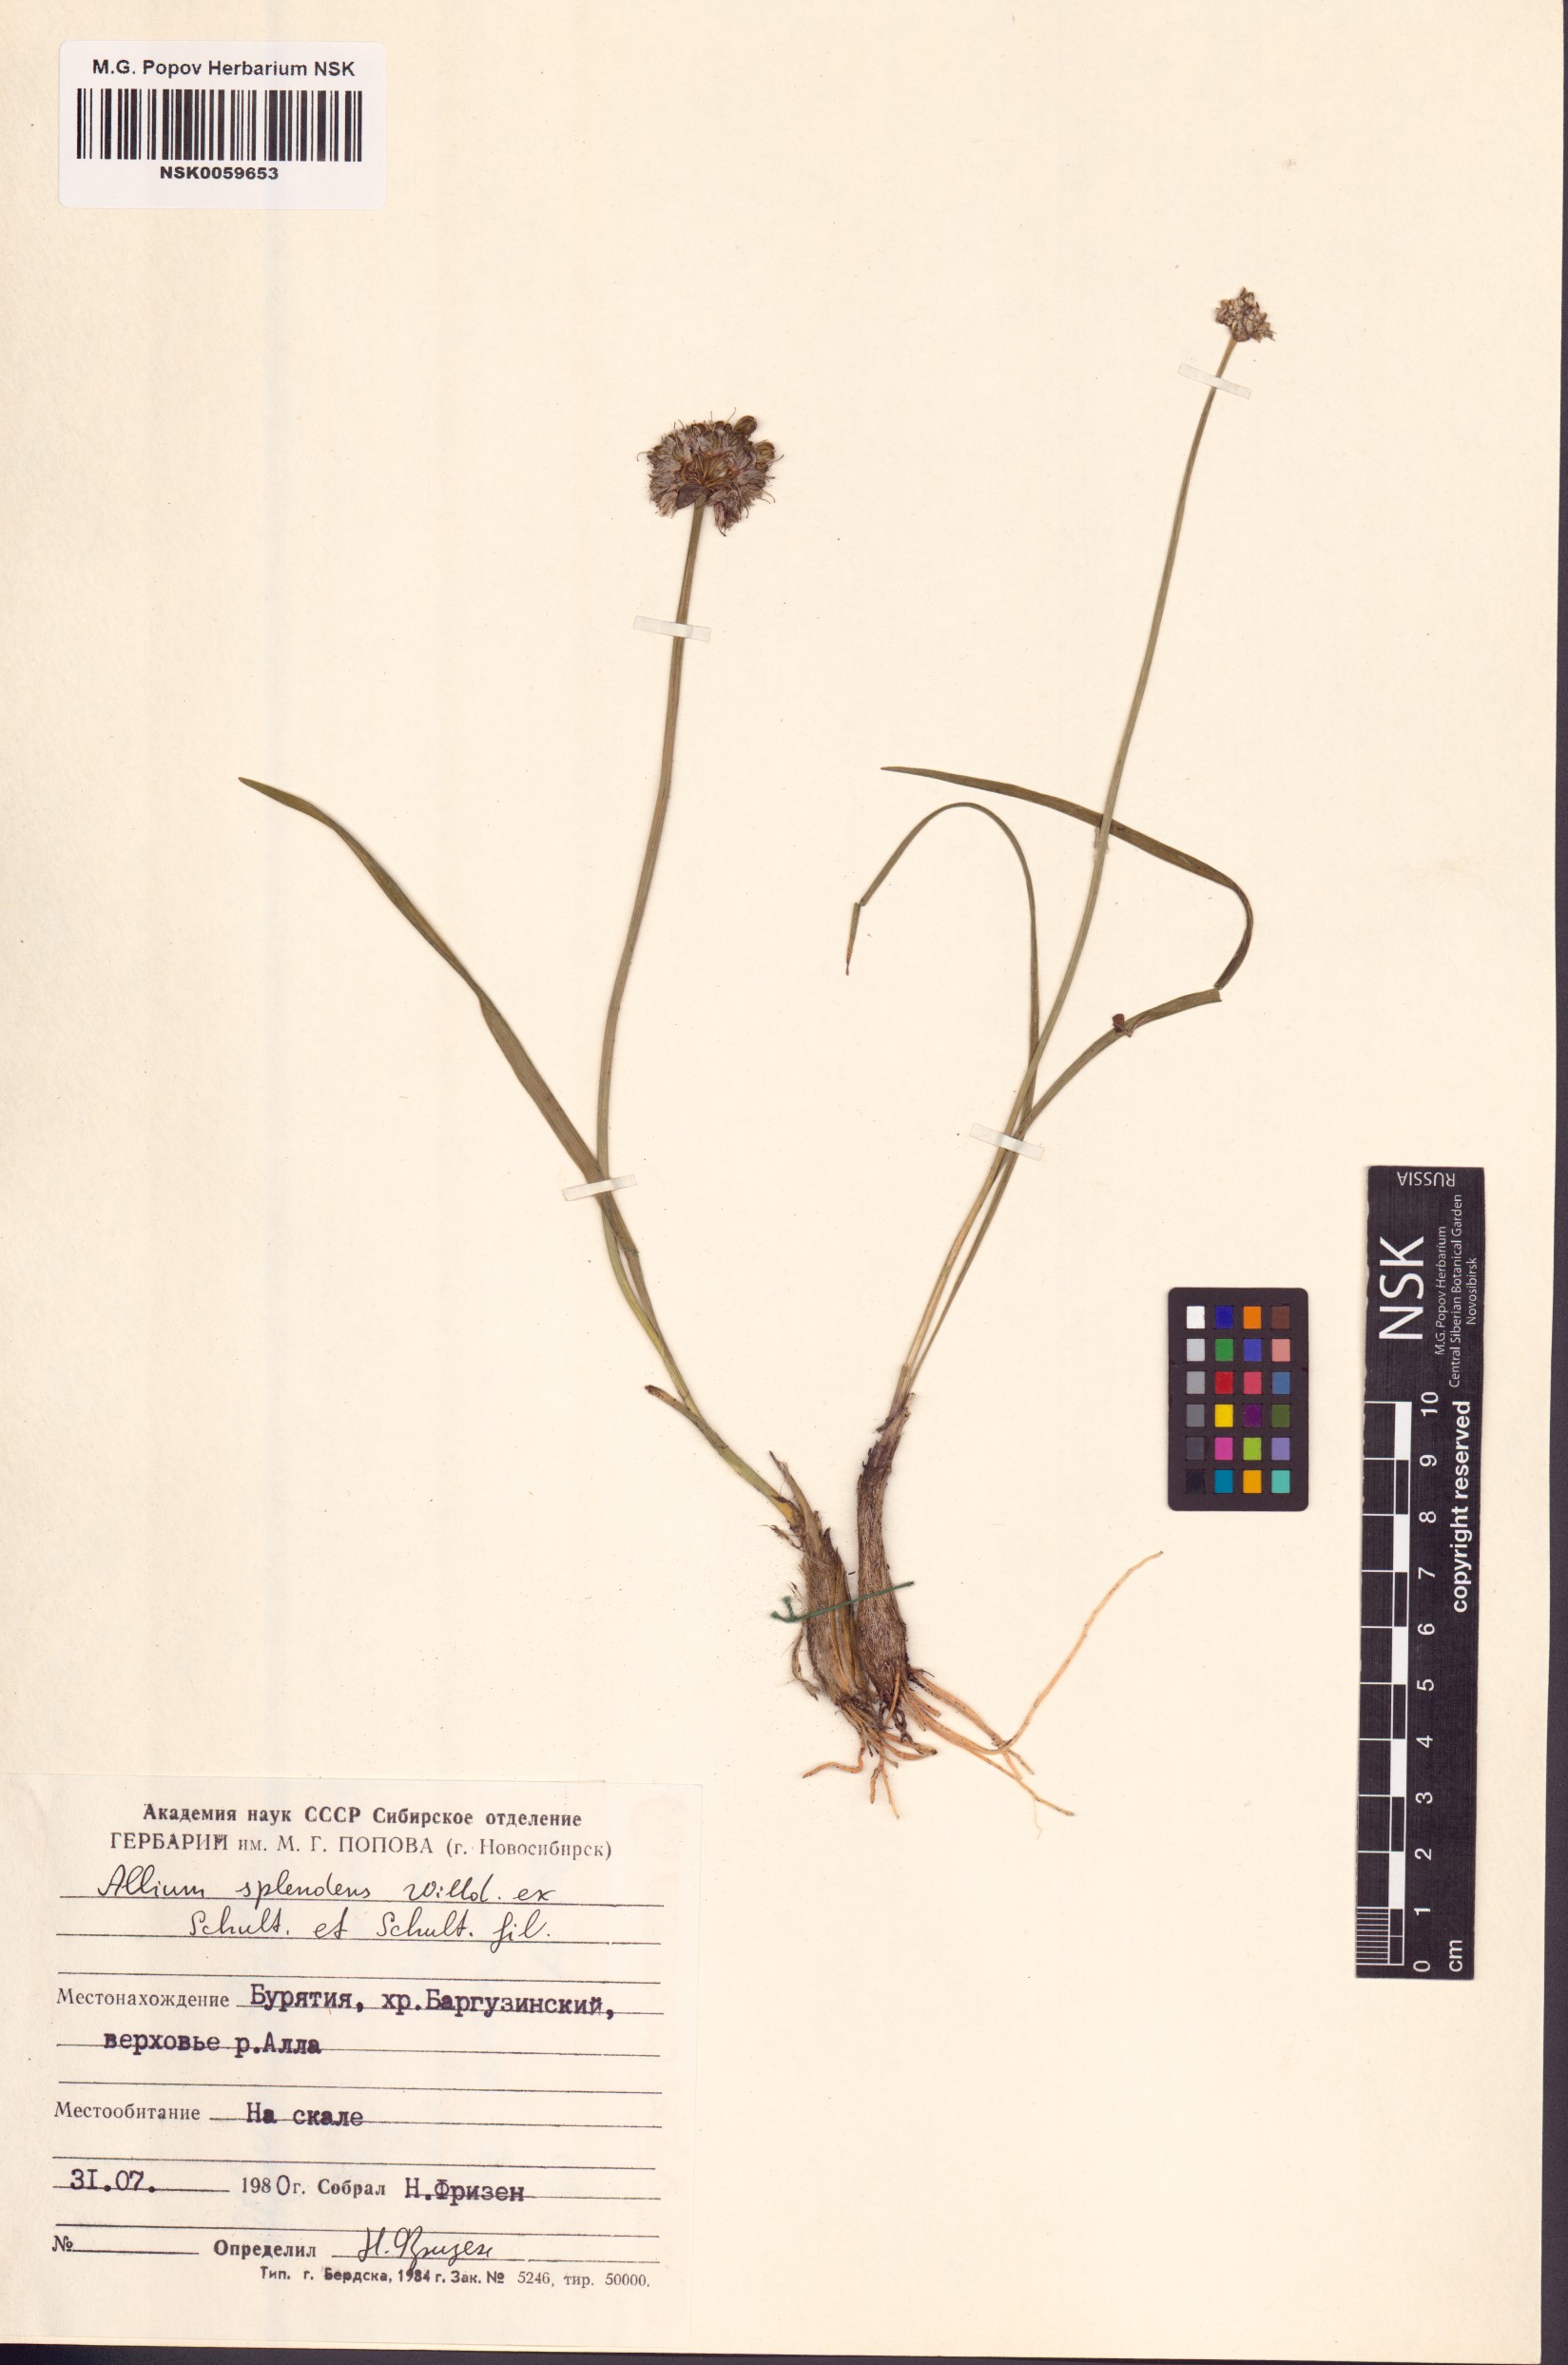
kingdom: Plantae
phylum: Tracheophyta
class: Liliopsida
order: Asparagales
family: Amaryllidaceae
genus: Allium
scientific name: Allium splendens
